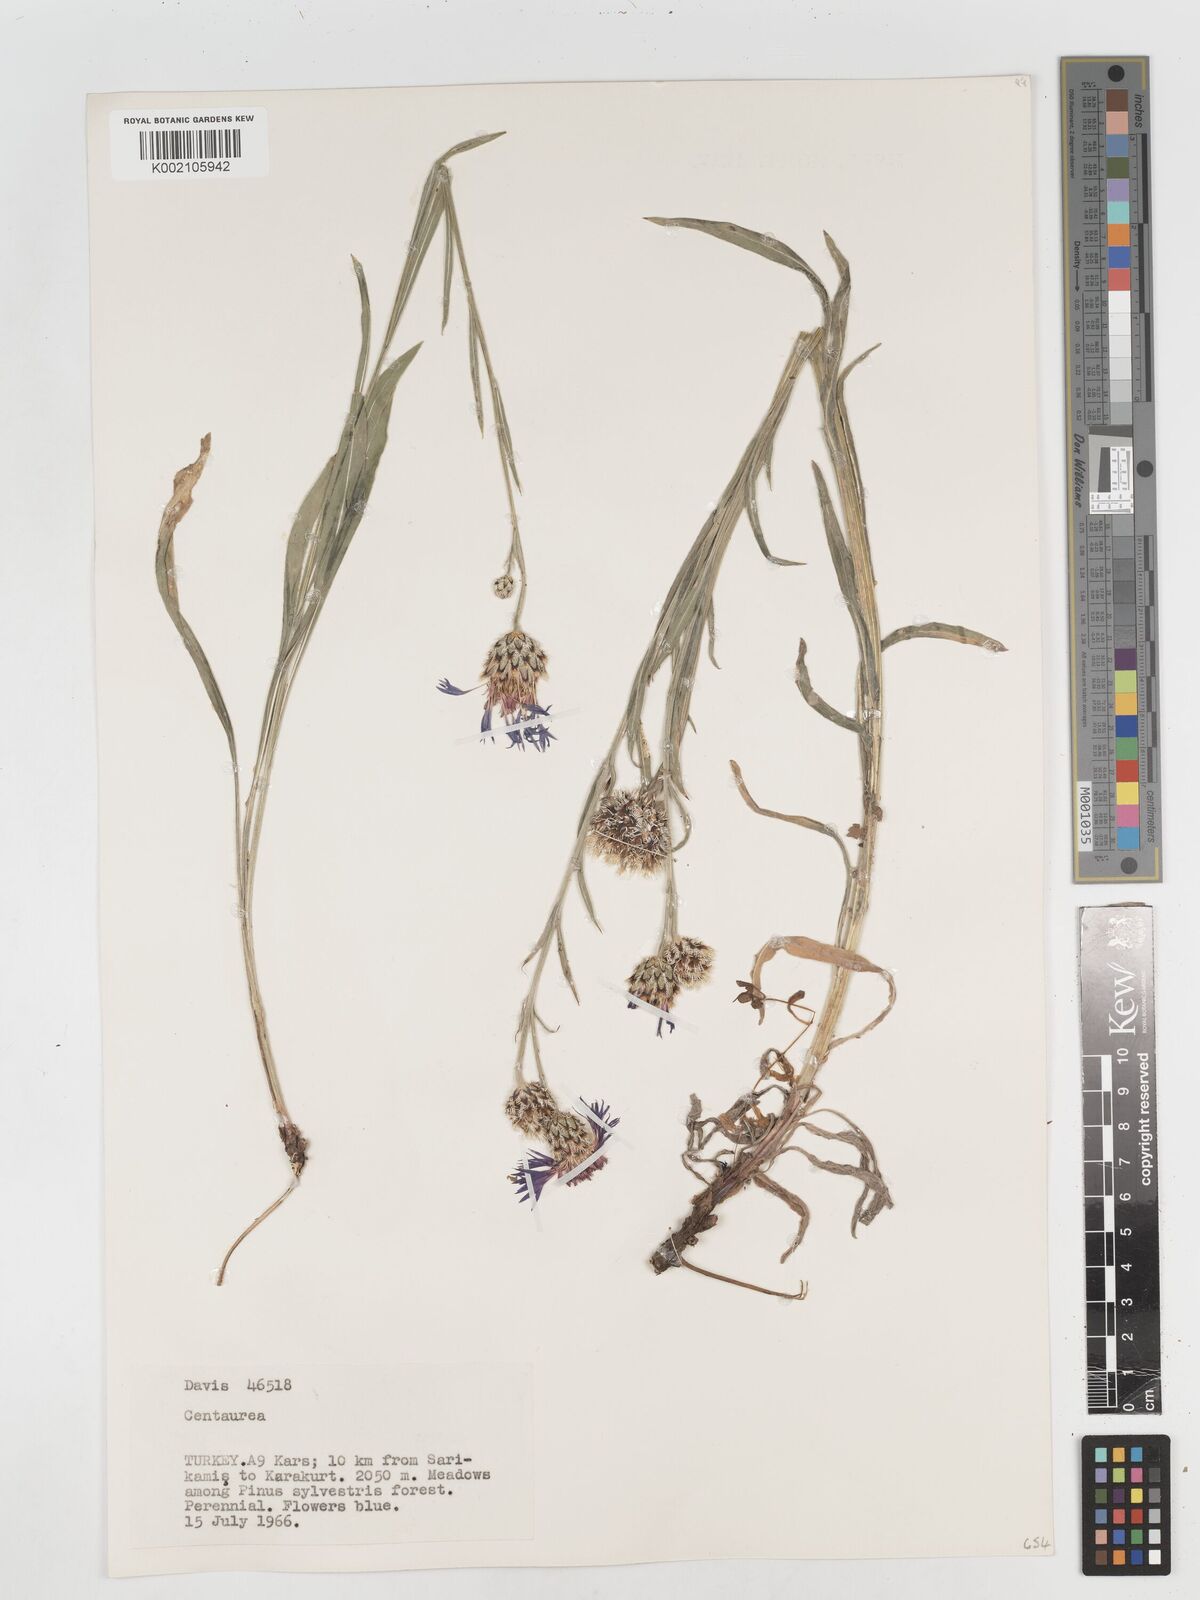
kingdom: Plantae
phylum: Tracheophyta
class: Magnoliopsida
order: Asterales
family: Asteraceae
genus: Centaurea
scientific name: Centaurea
